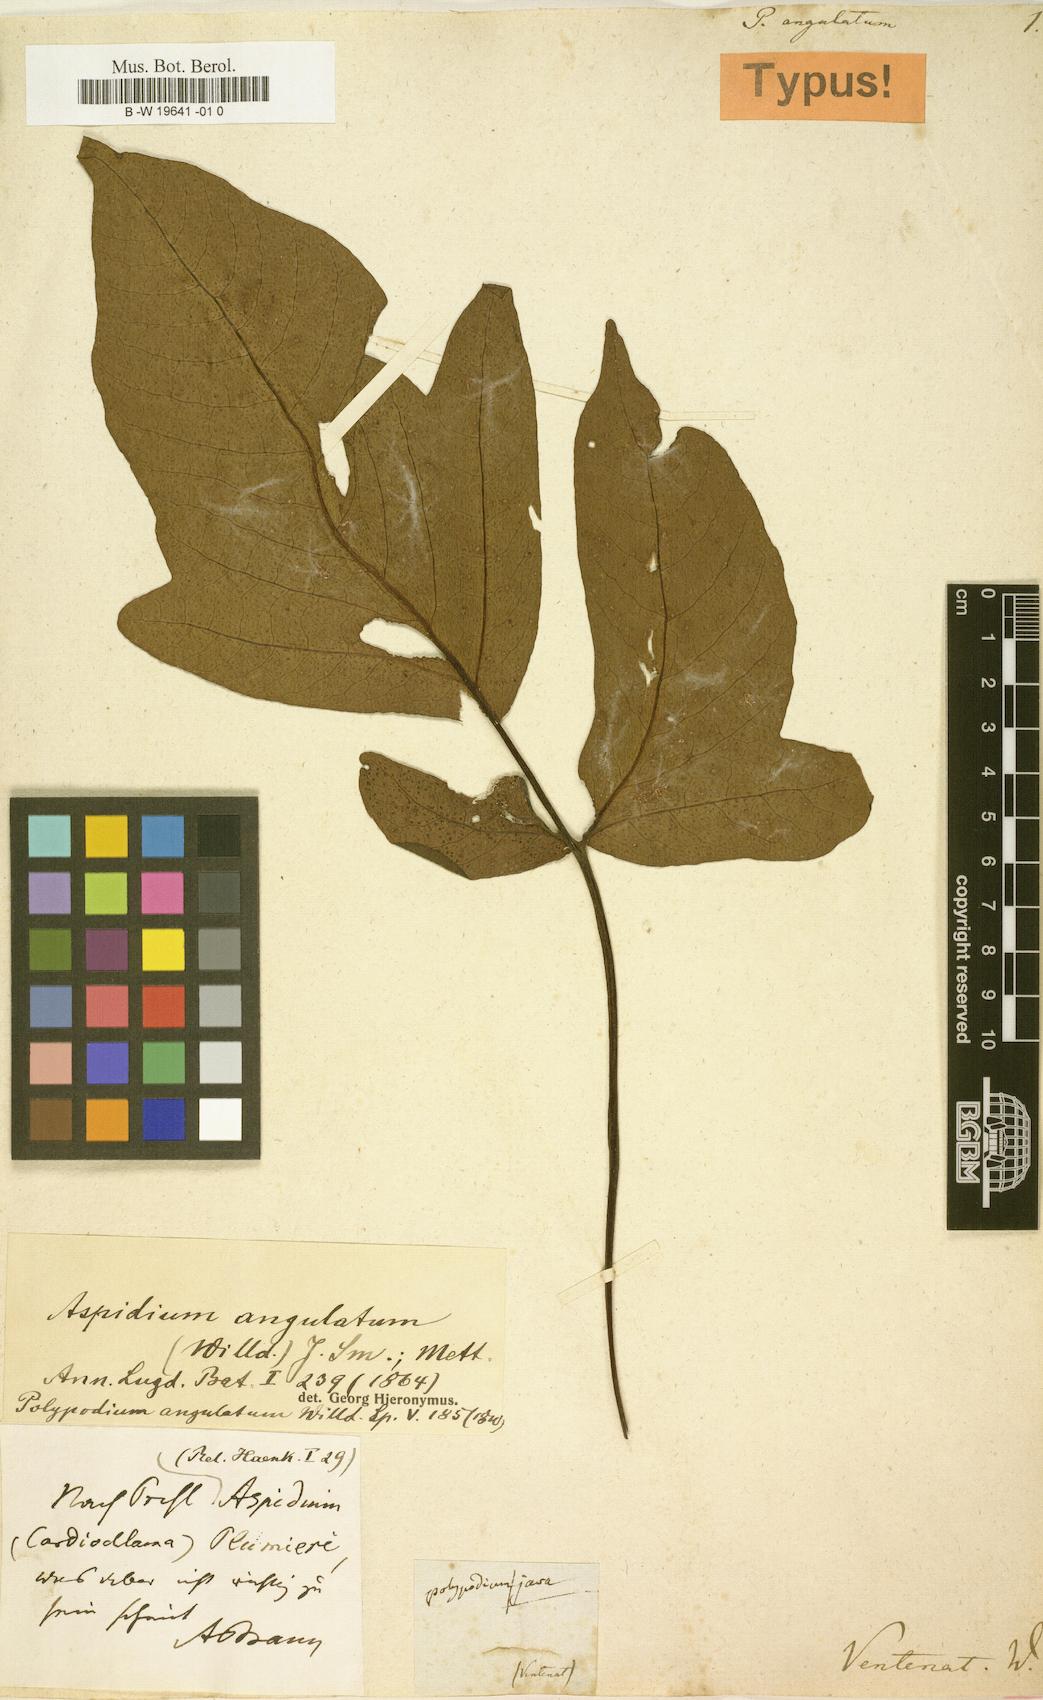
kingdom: Plantae
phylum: Tracheophyta
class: Polypodiopsida
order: Polypodiales
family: Tectariaceae
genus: Tectaria
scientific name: Tectaria angulata
